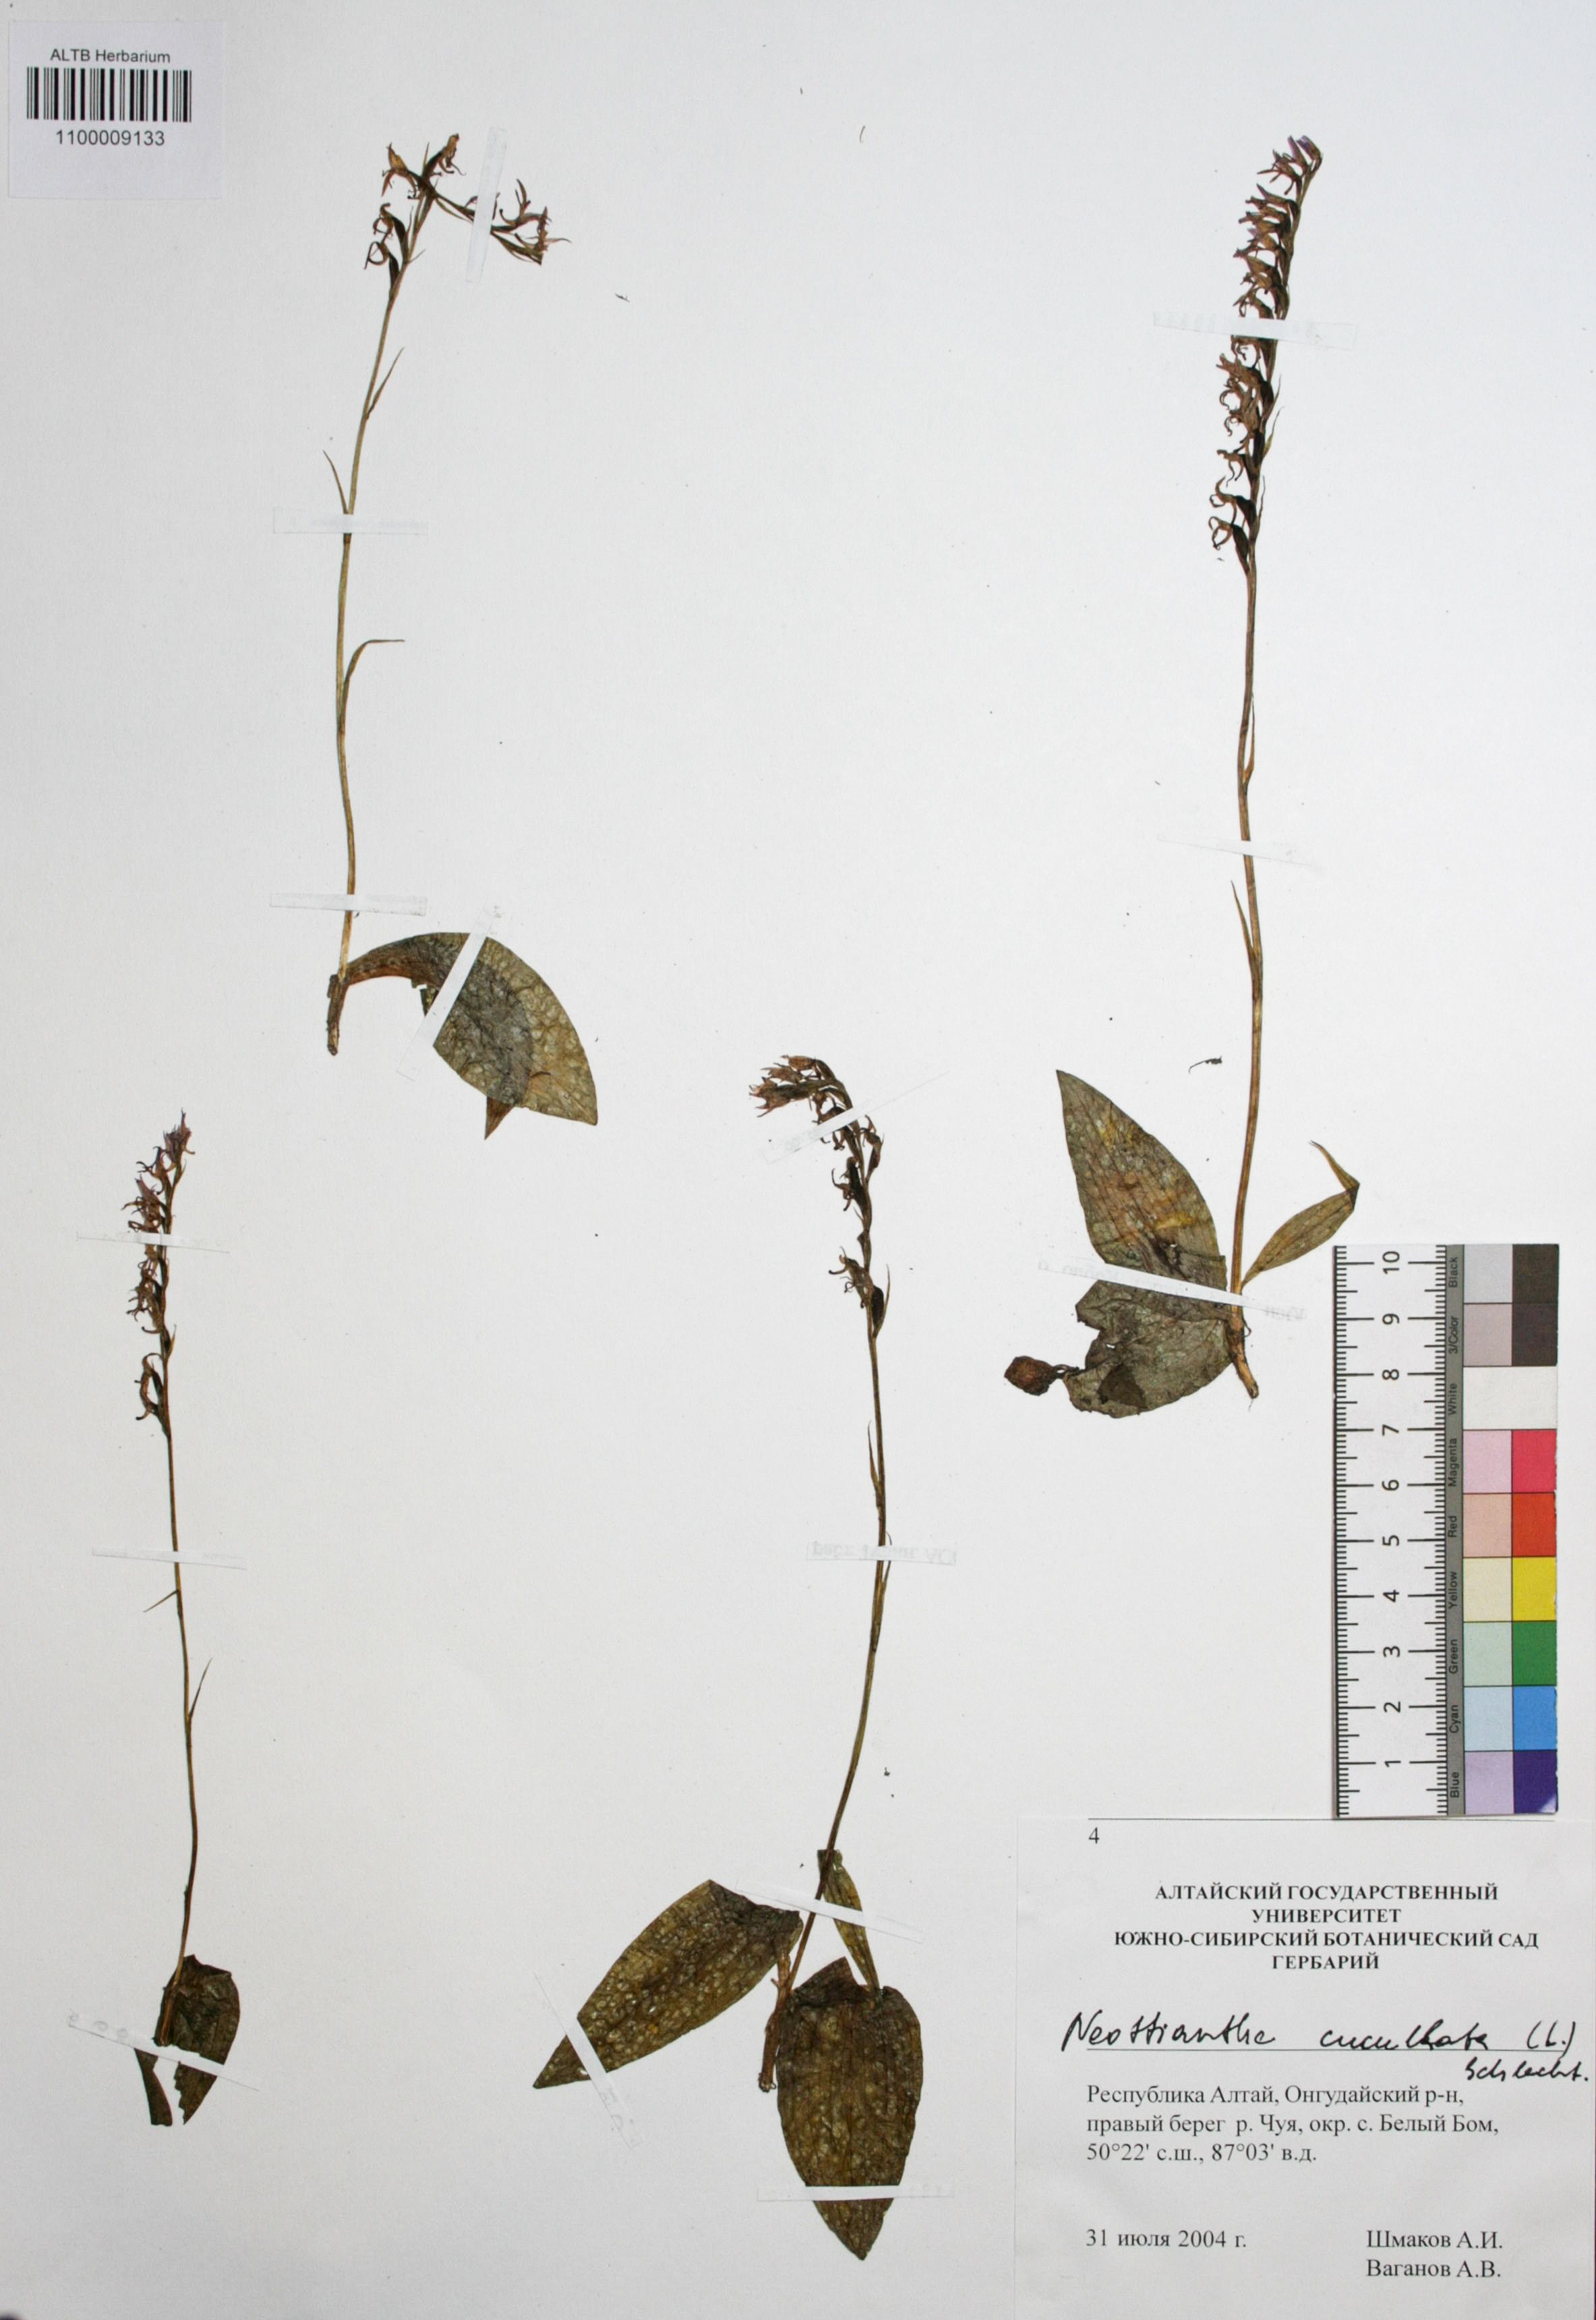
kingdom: Plantae
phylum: Tracheophyta
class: Liliopsida
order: Asparagales
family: Orchidaceae
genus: Hemipilia
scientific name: Hemipilia cucullata
